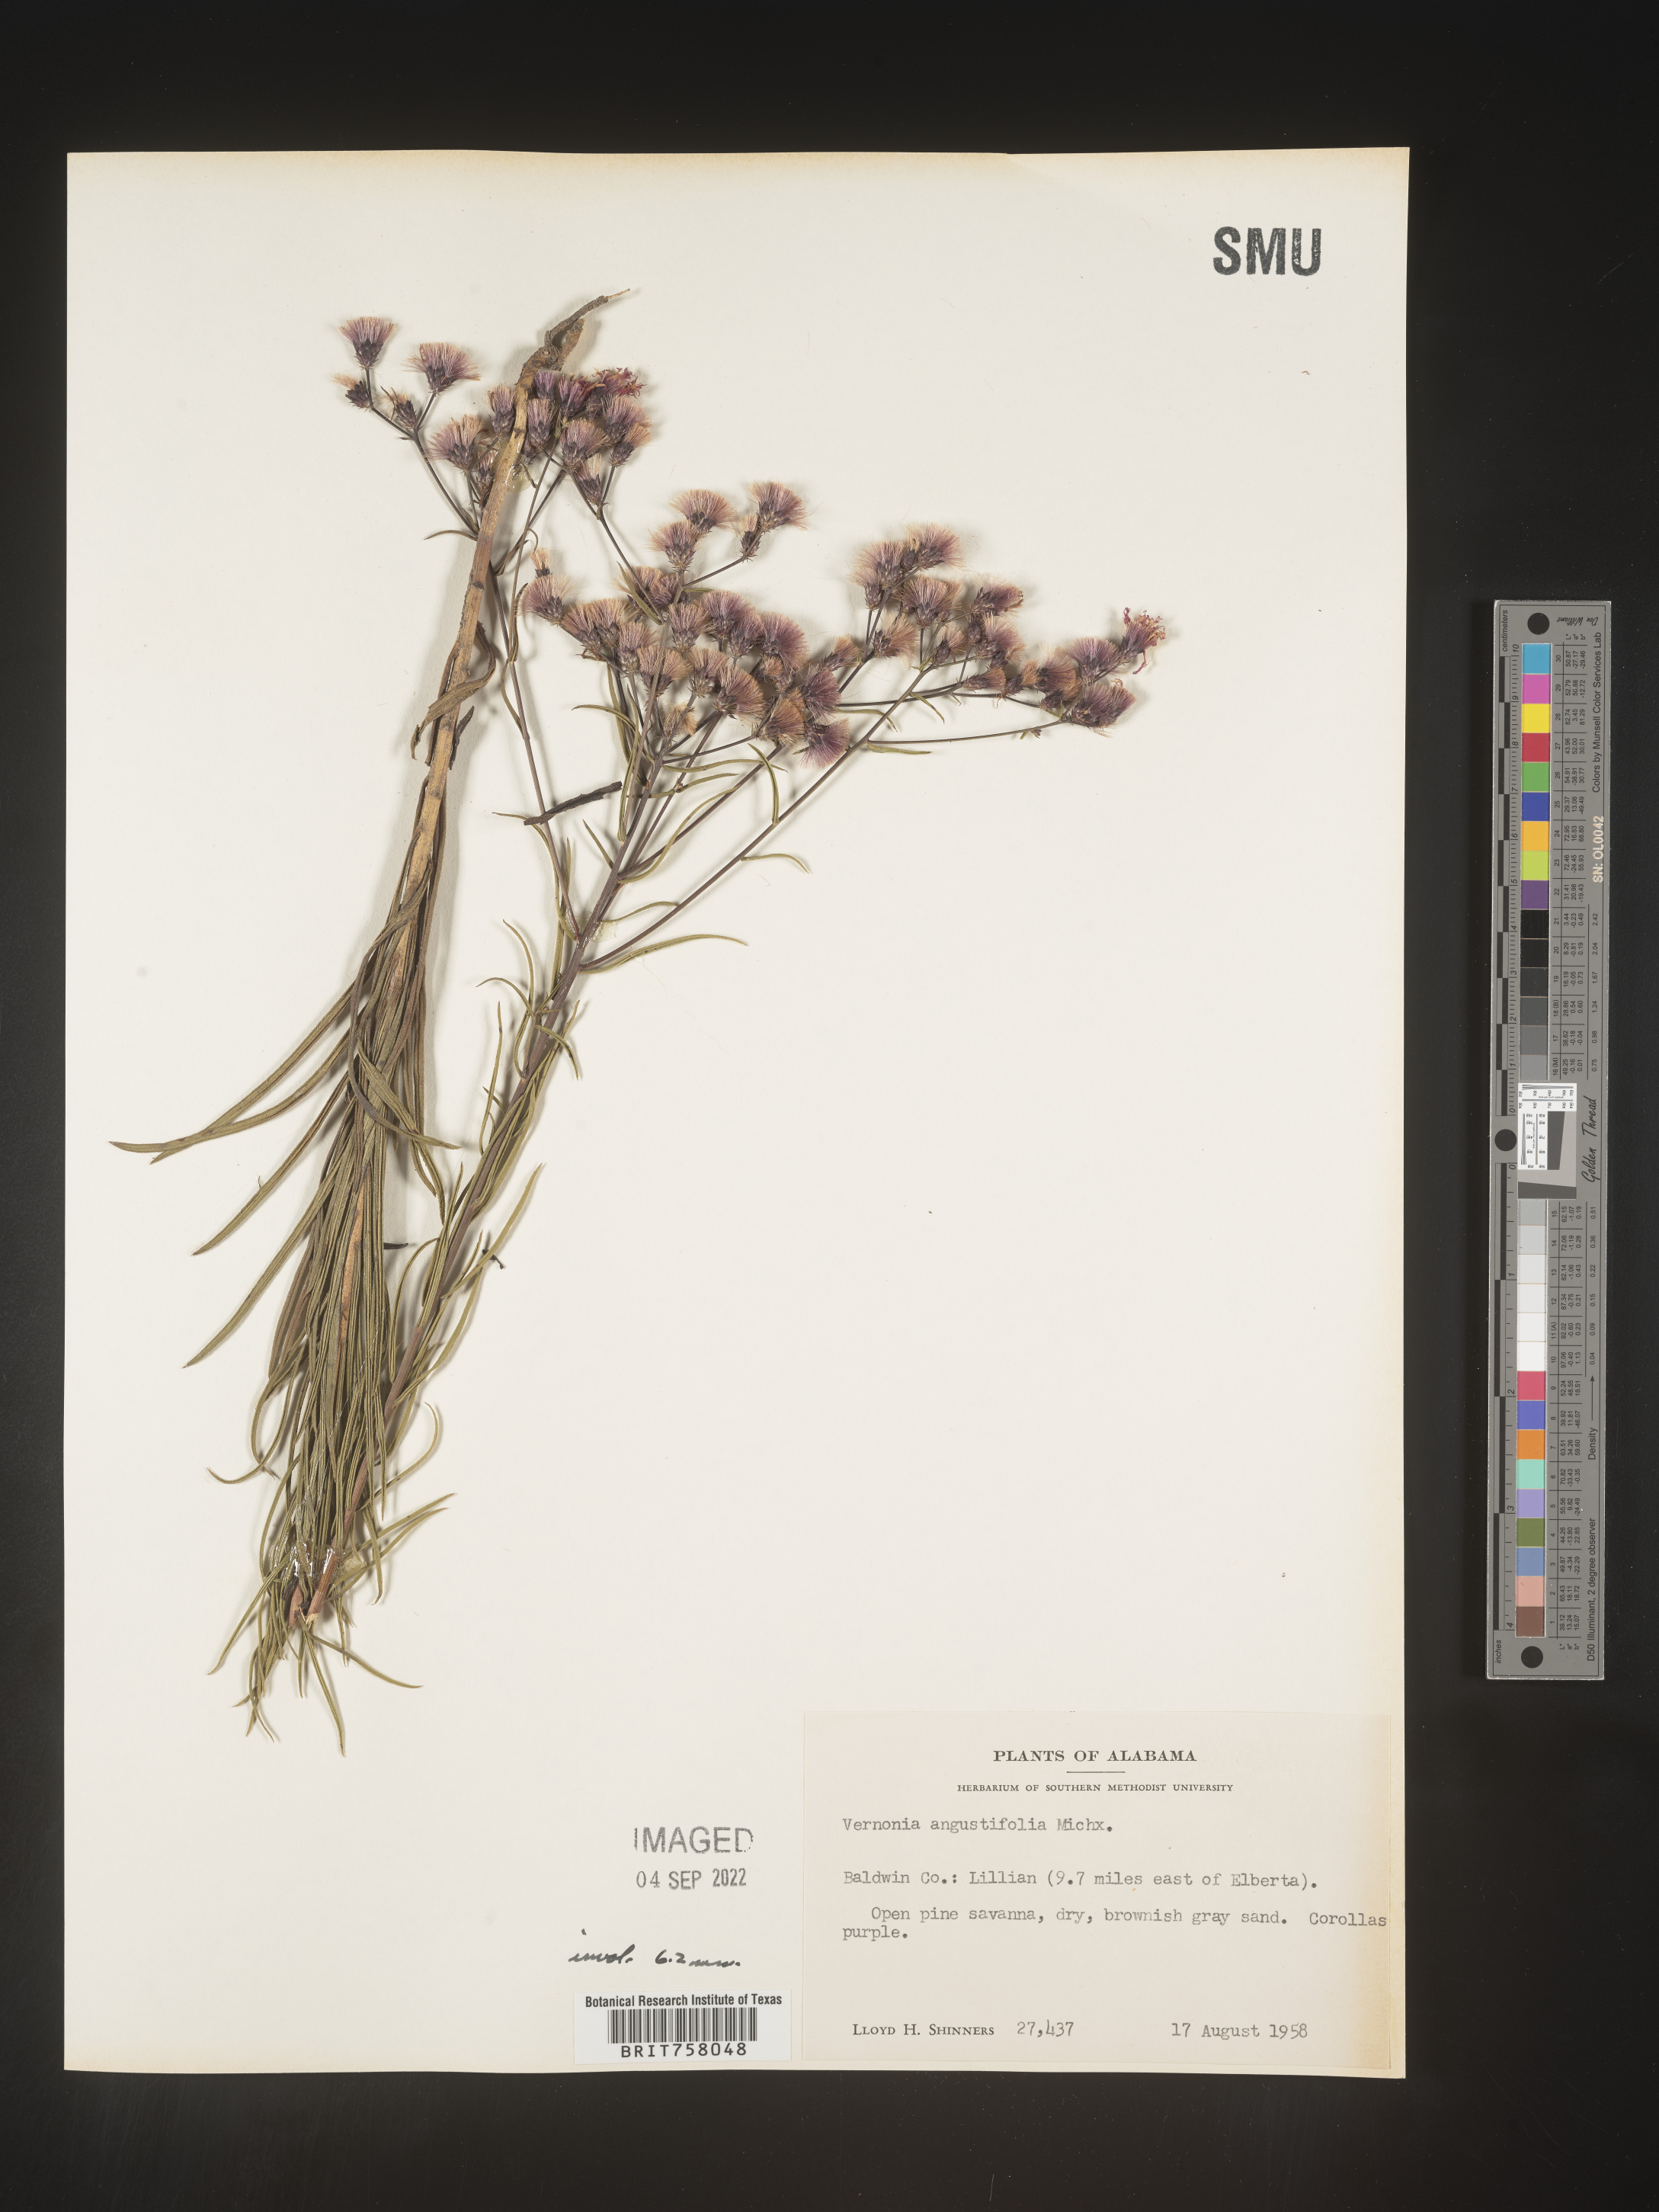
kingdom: Plantae
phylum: Tracheophyta
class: Magnoliopsida
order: Asterales
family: Asteraceae
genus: Vernonia
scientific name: Vernonia angustifolia
